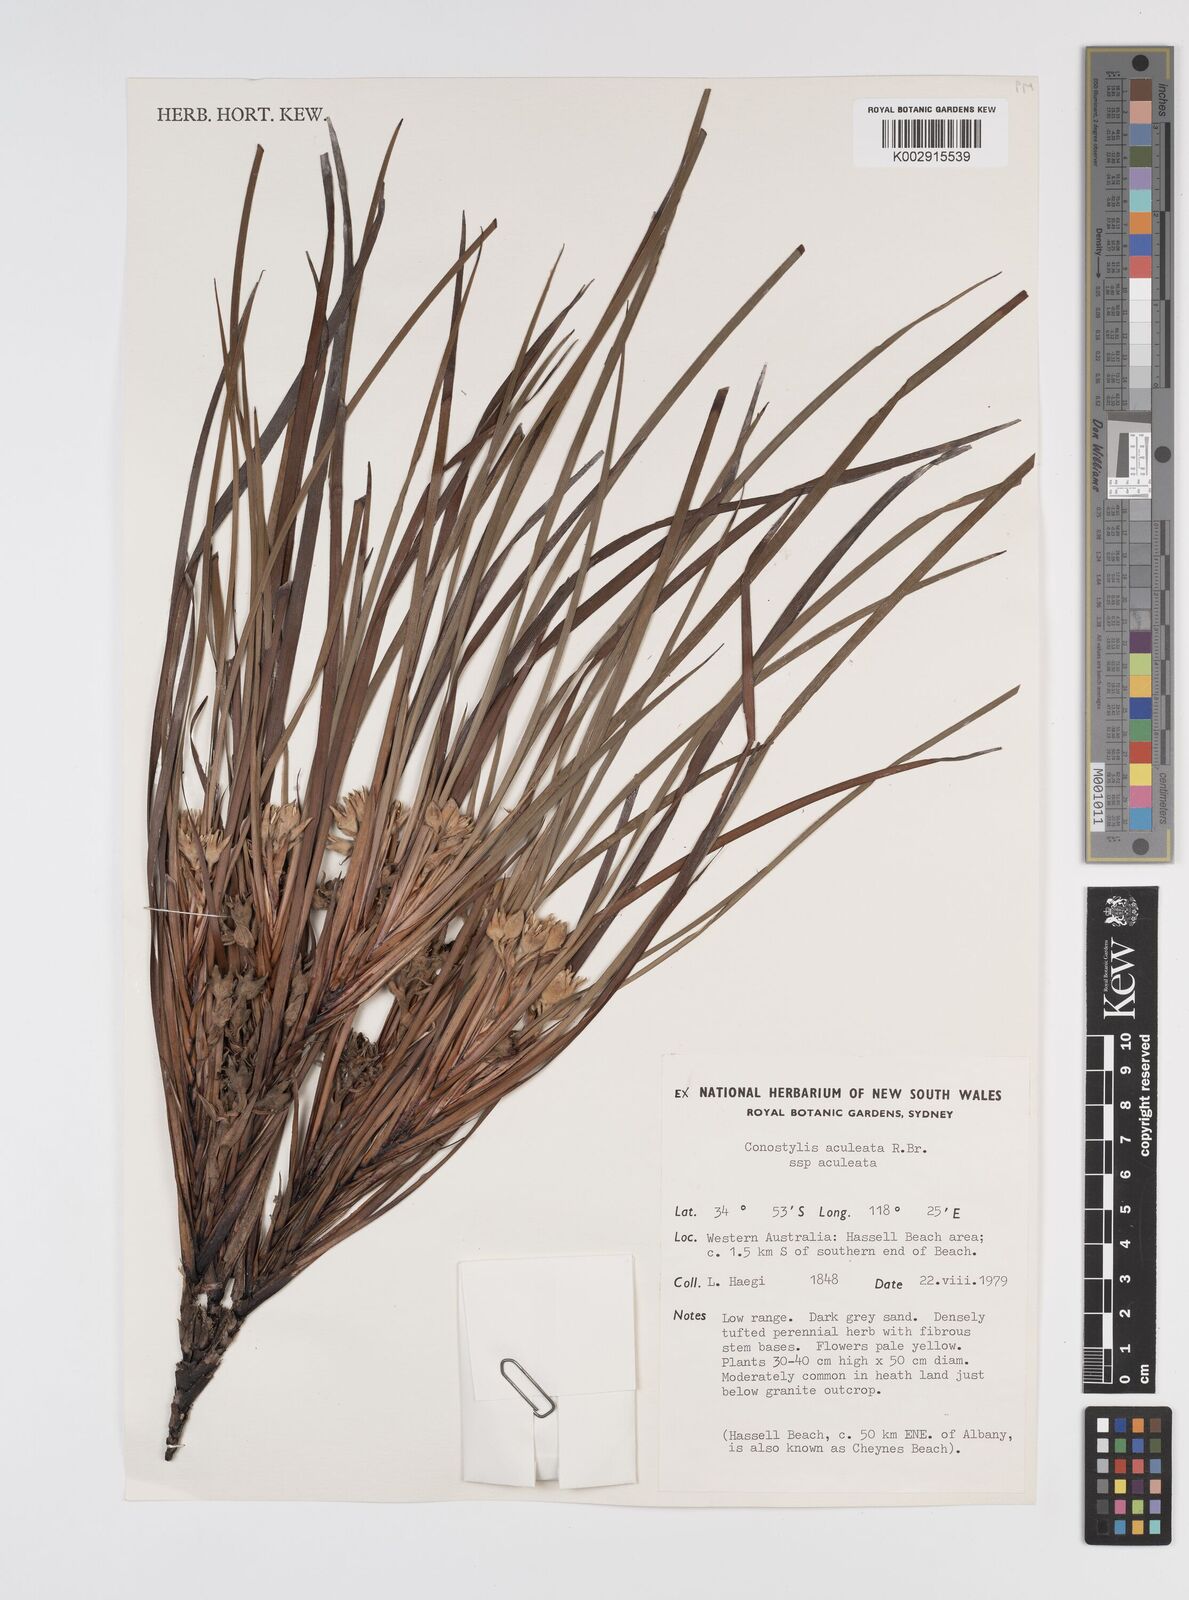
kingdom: Plantae
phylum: Tracheophyta
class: Liliopsida
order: Commelinales
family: Haemodoraceae
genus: Conostylis
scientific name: Conostylis aculeata
